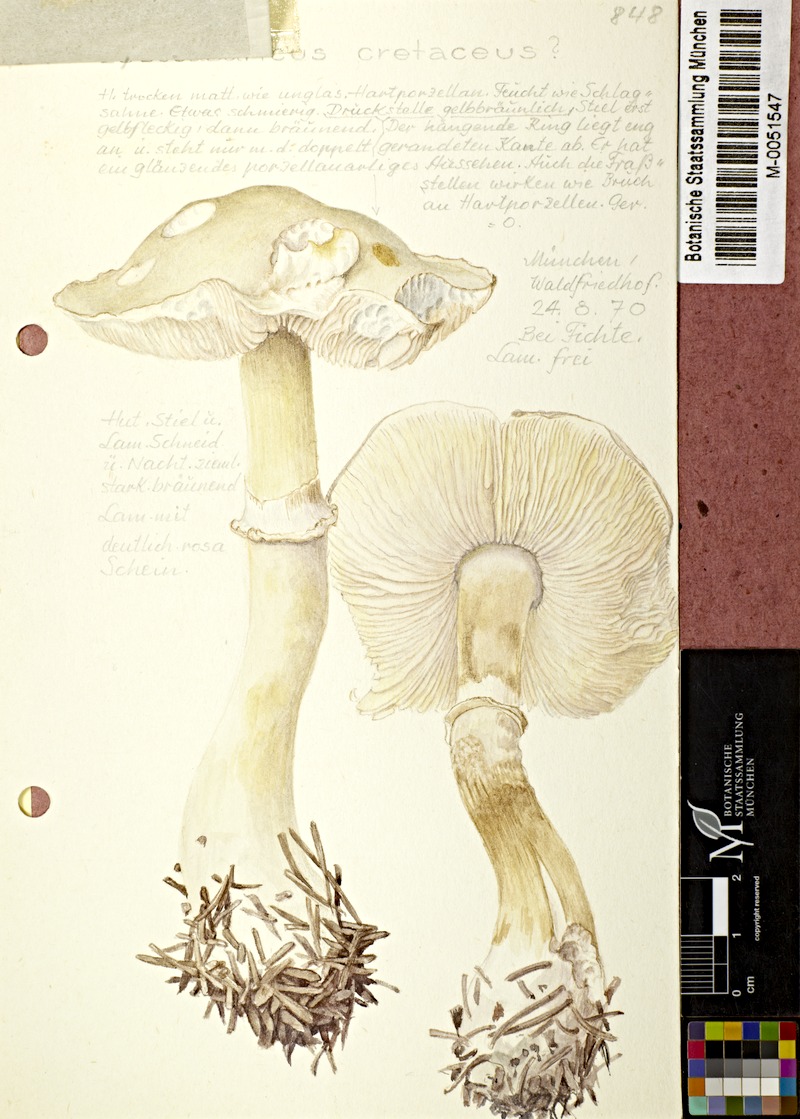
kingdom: Fungi
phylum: Basidiomycota
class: Agaricomycetes
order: Agaricales
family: Agaricaceae
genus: Leucocoprinus
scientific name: Leucocoprinus cretaceus
